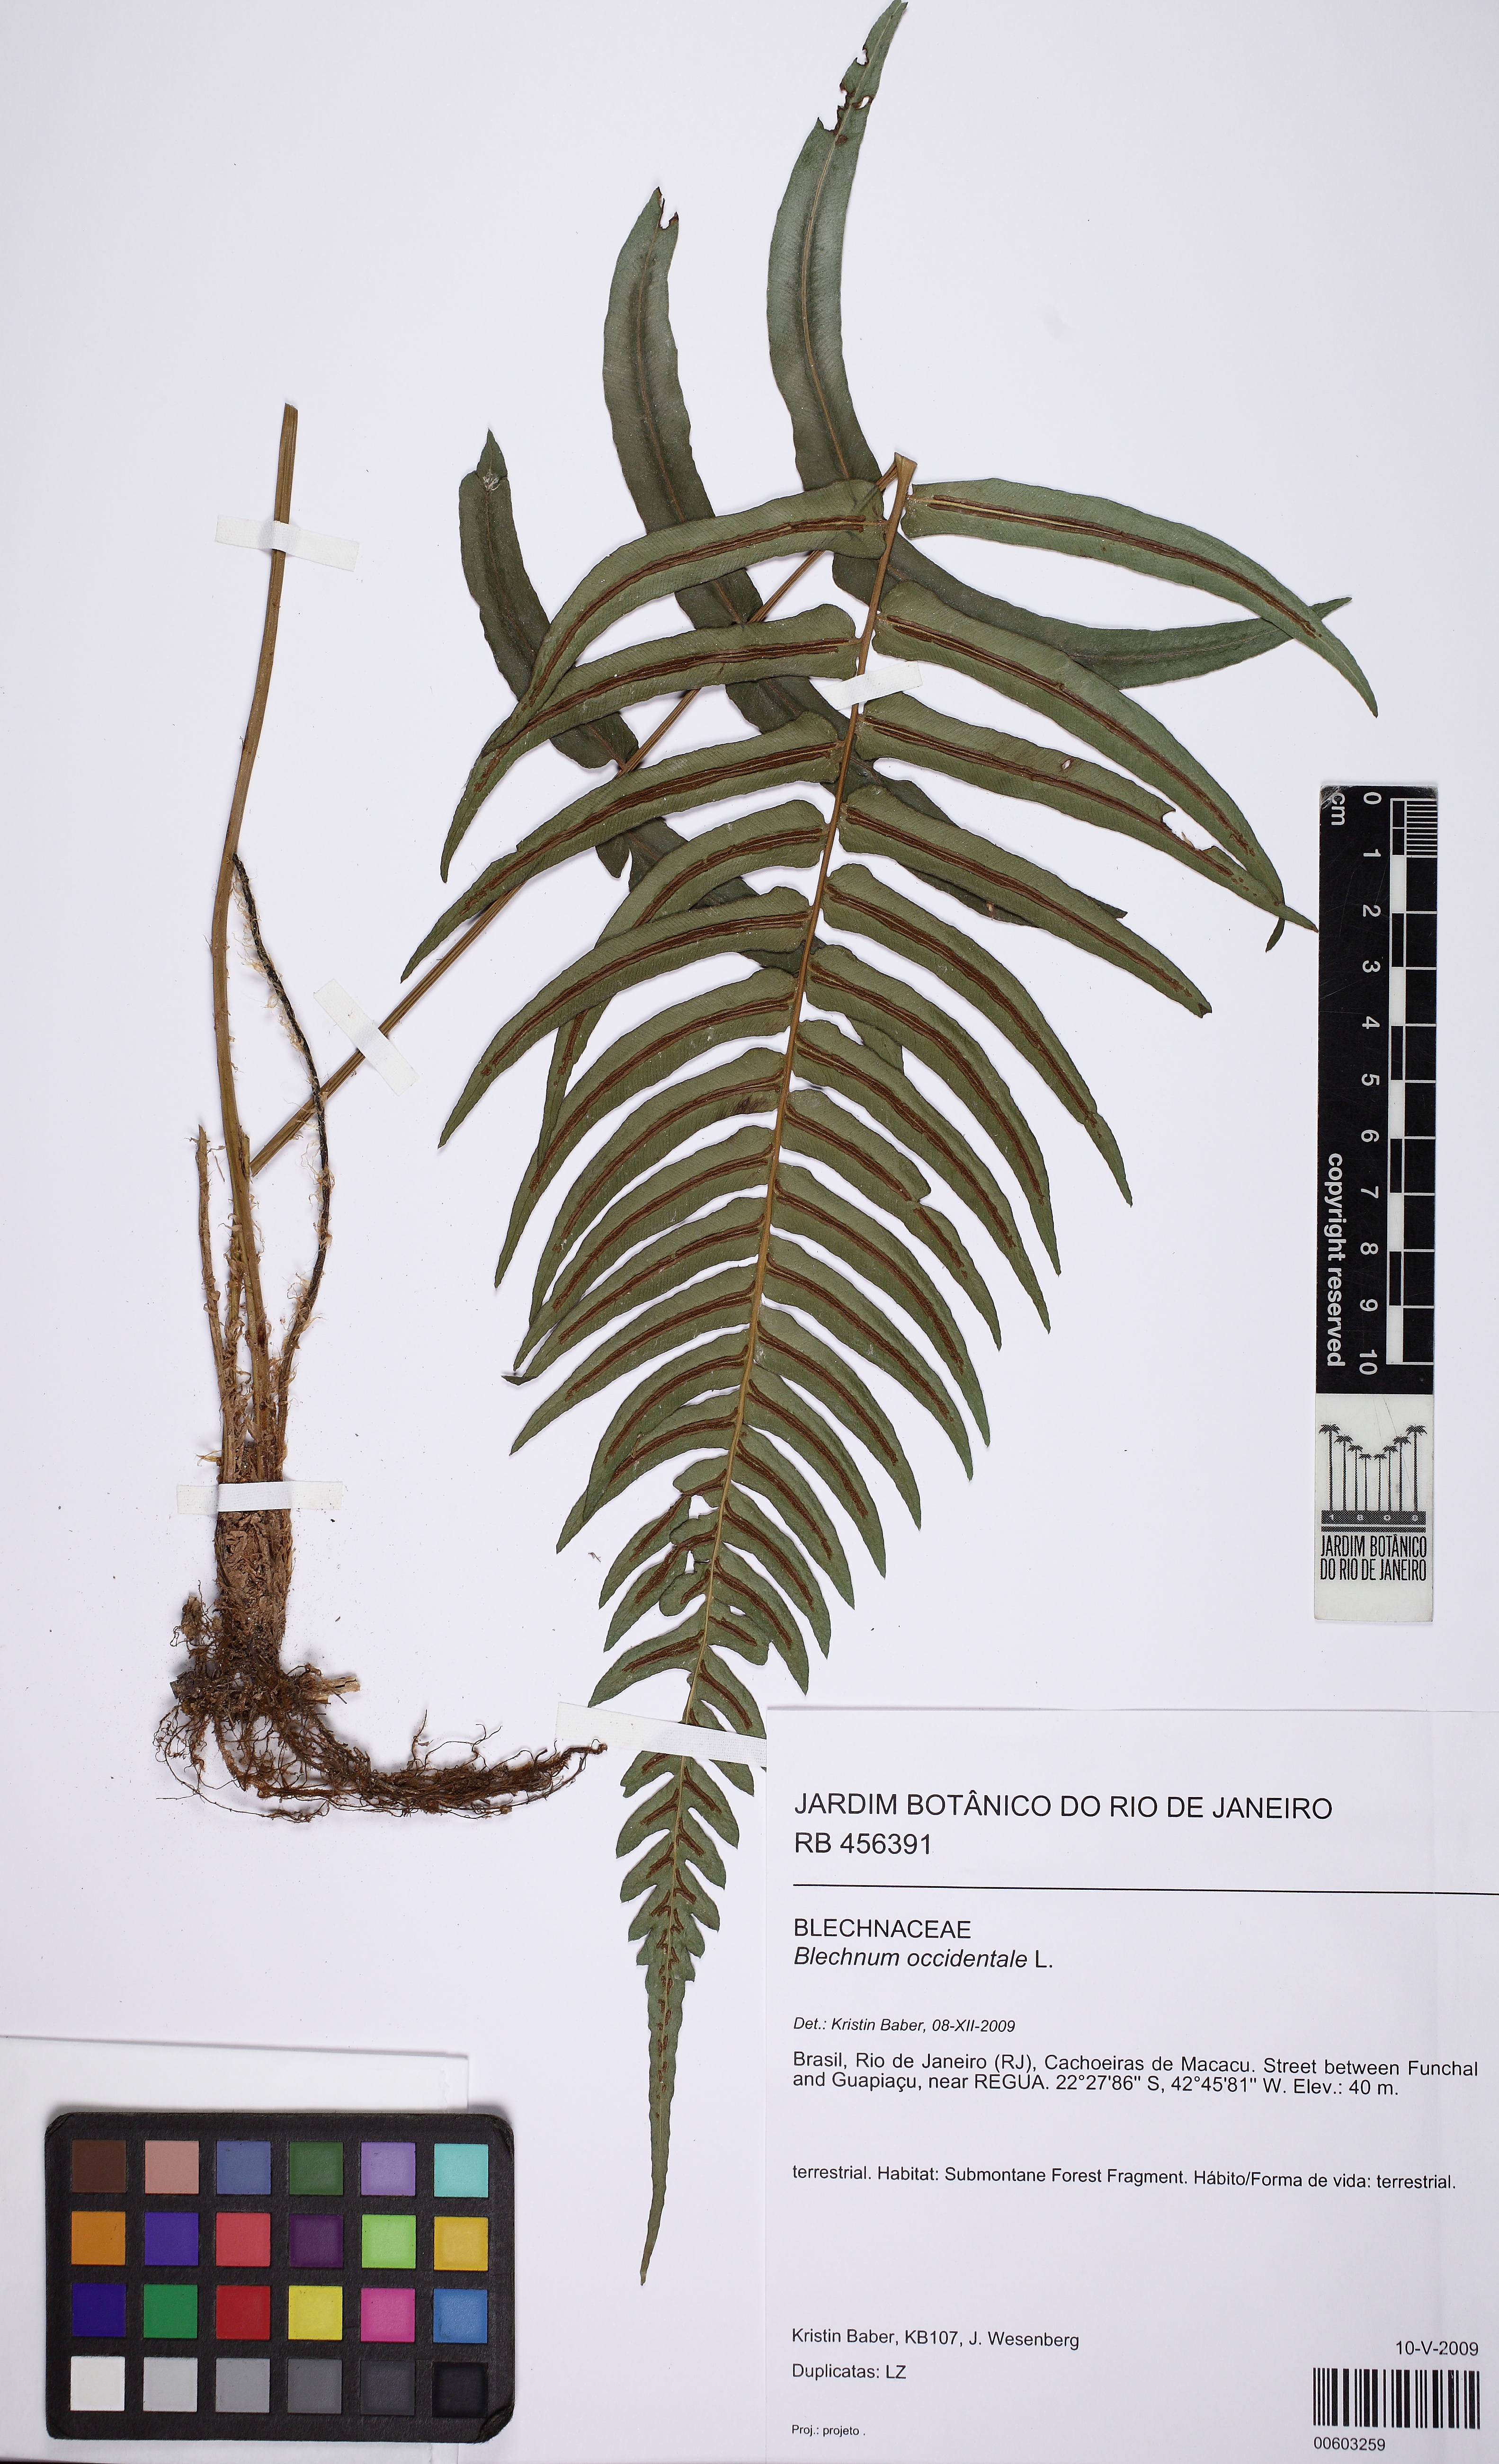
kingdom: Plantae
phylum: Tracheophyta
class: Polypodiopsida
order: Polypodiales
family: Blechnaceae
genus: Blechnum
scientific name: Blechnum occidentale
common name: Hammock fern
